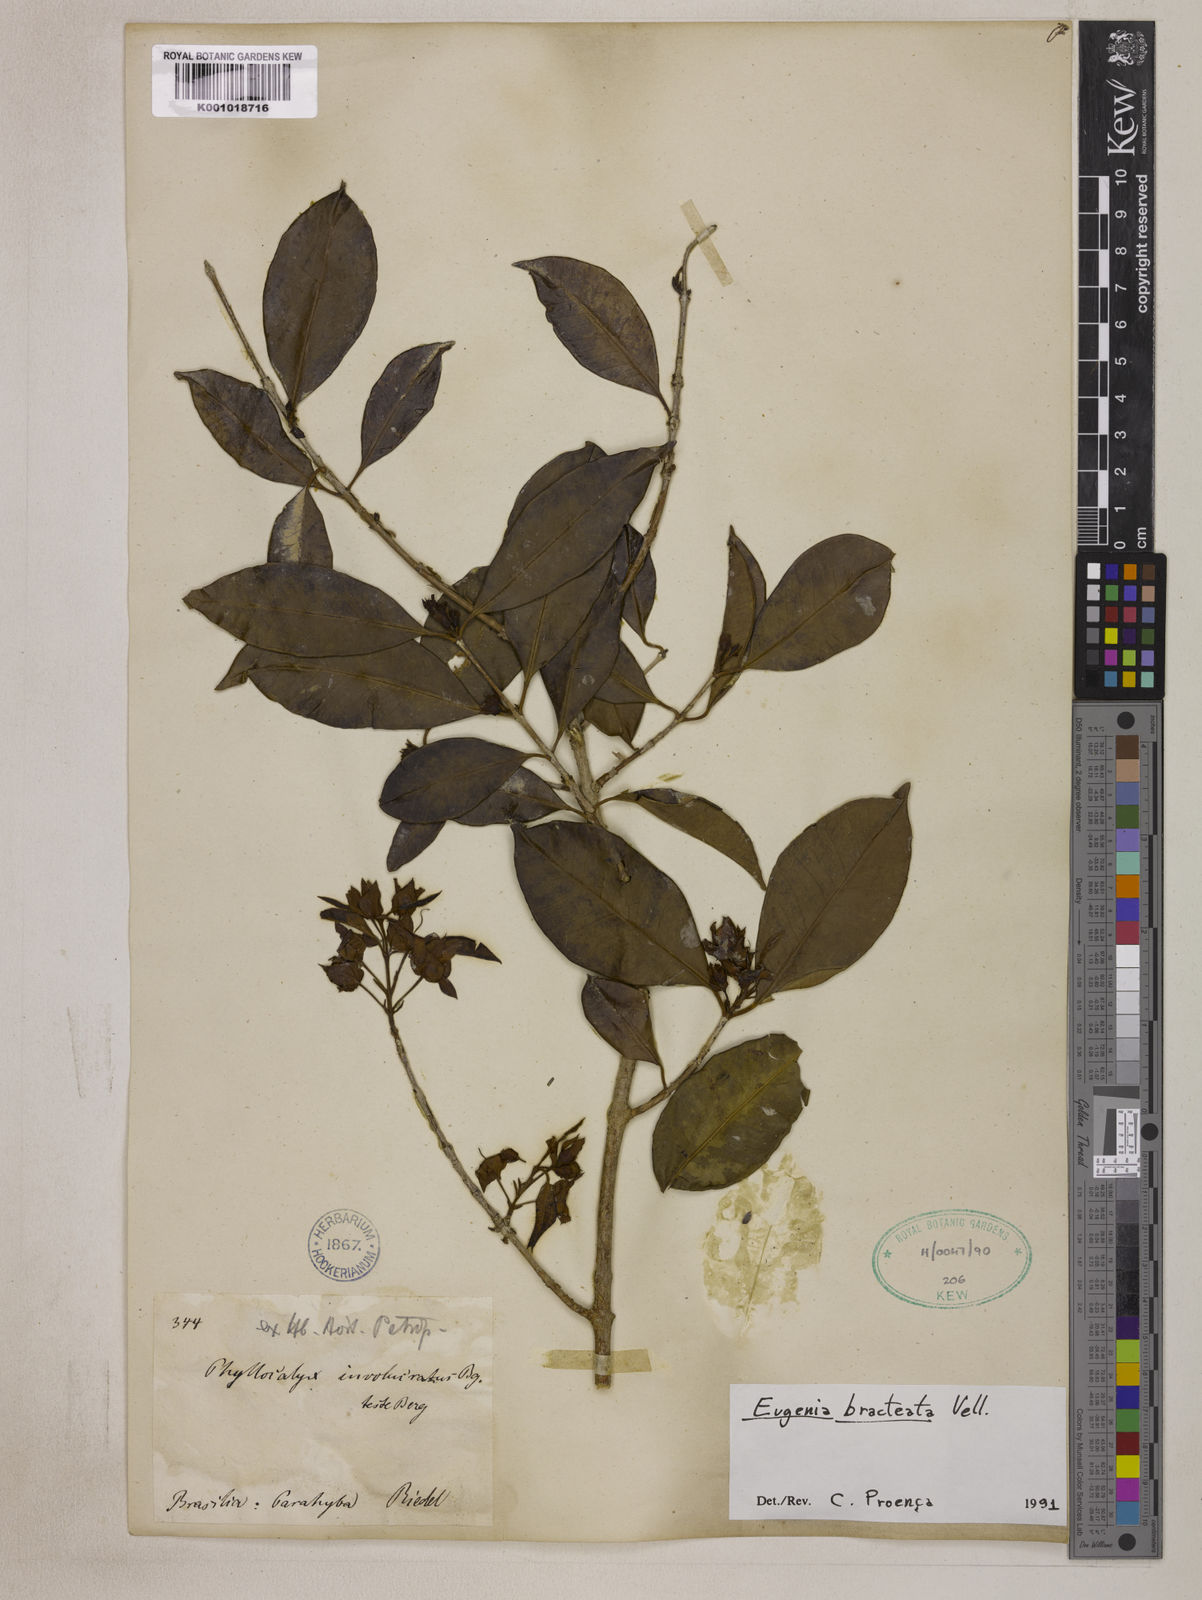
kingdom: Plantae
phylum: Tracheophyta
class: Magnoliopsida
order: Myrtales
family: Myrtaceae
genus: Eugenia
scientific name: Eugenia involucrata
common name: Cherry-of-the-rio grande
